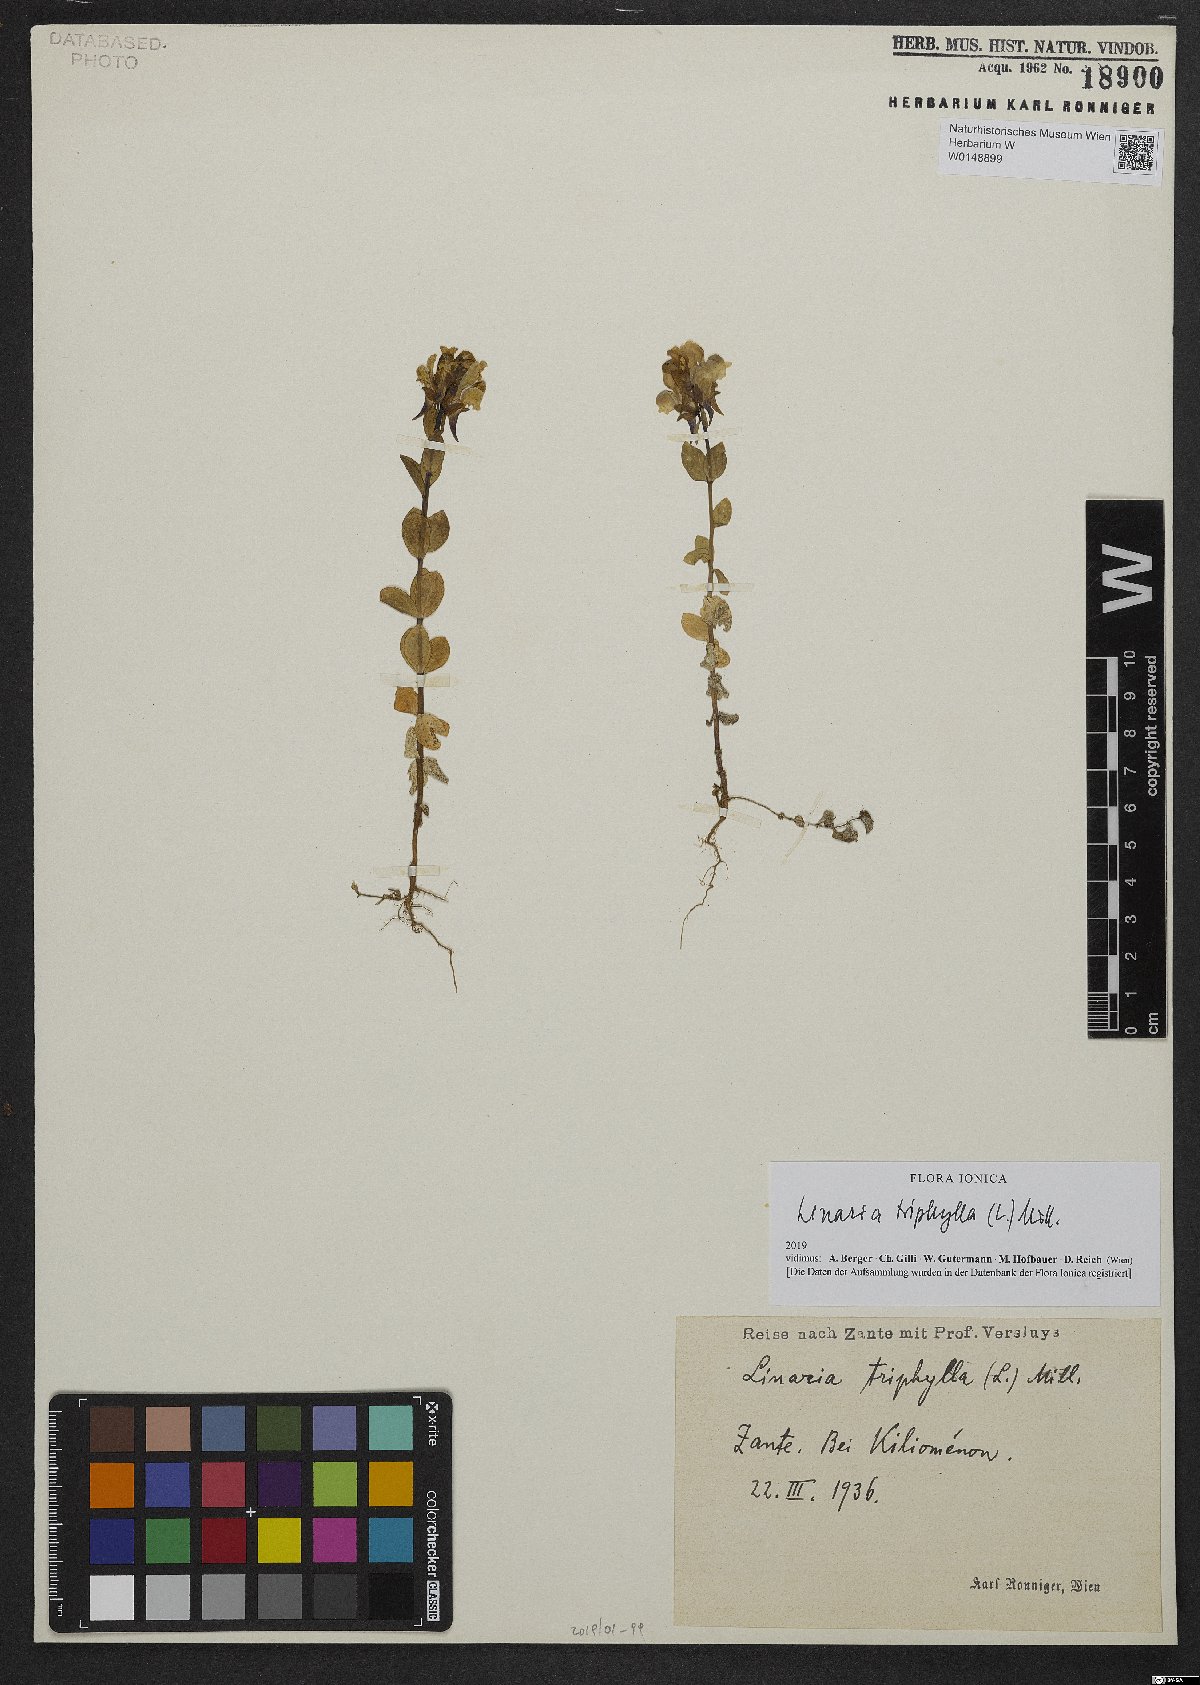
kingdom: Plantae
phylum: Tracheophyta
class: Magnoliopsida
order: Lamiales
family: Plantaginaceae
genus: Linaria
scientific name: Linaria triphylla
